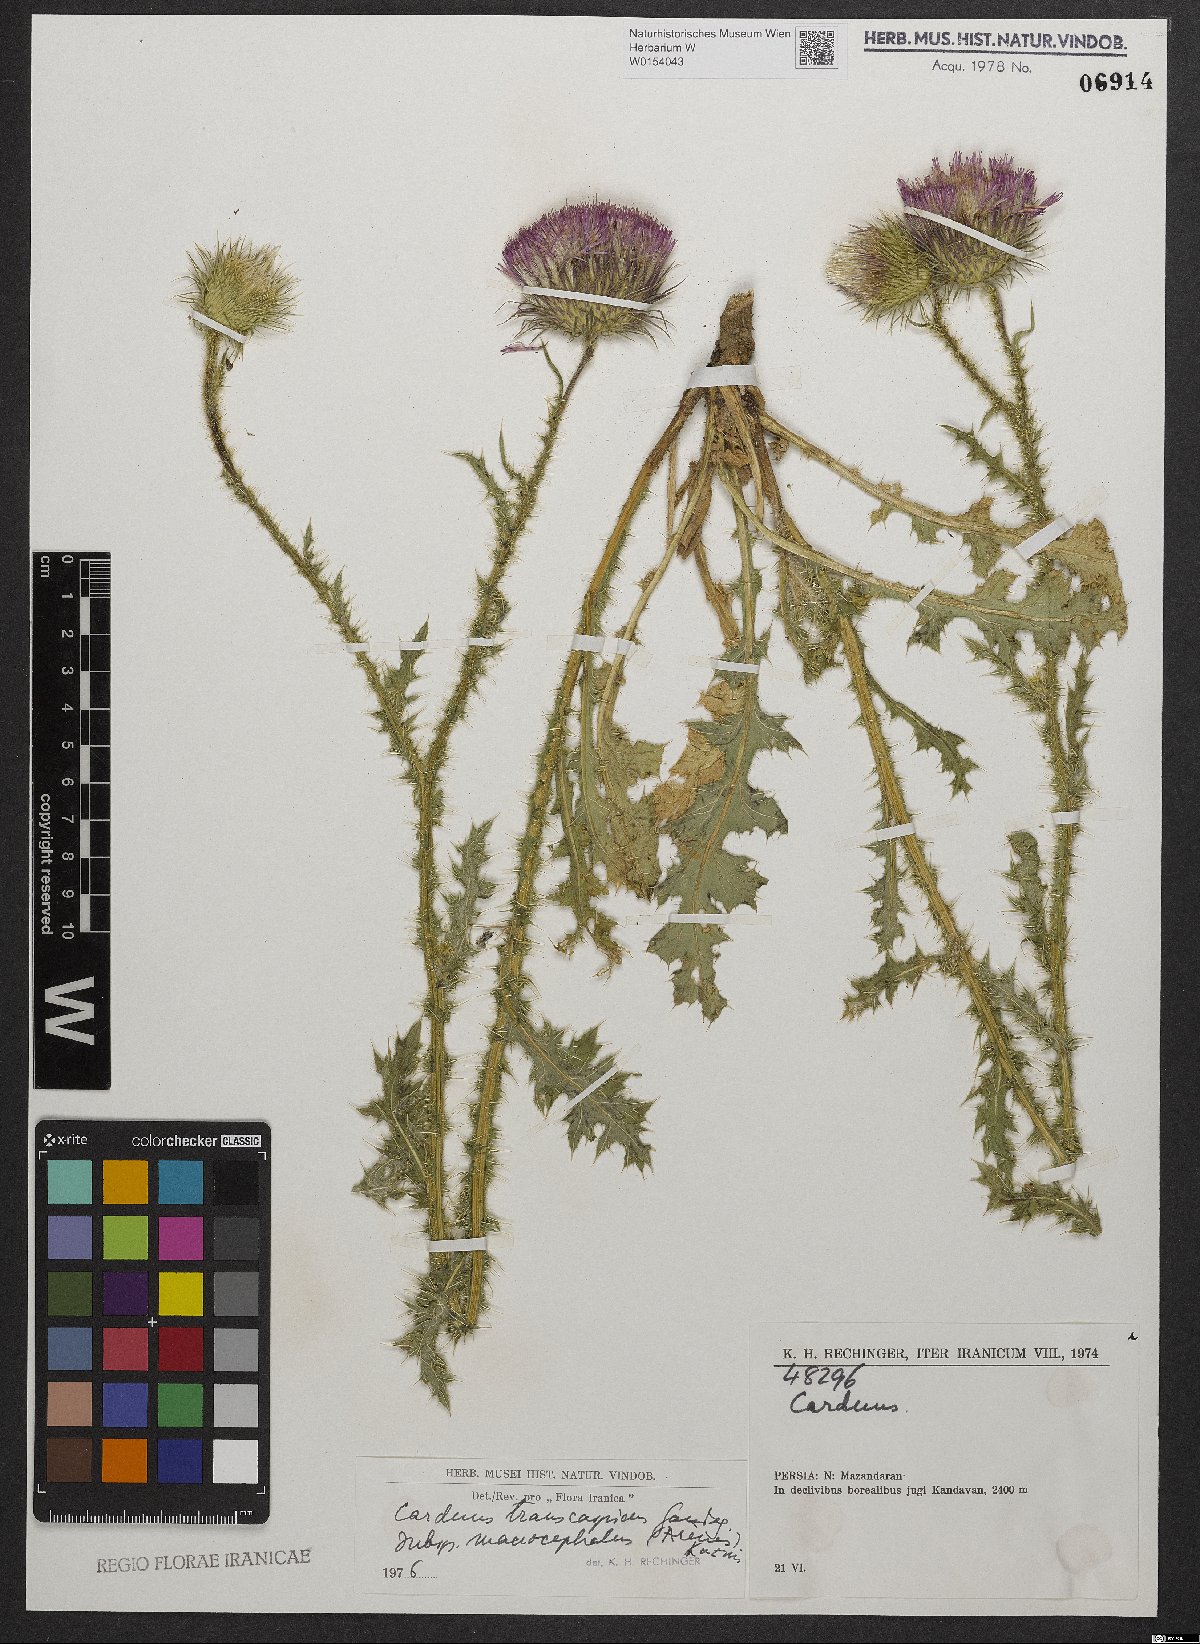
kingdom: Plantae
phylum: Tracheophyta
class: Magnoliopsida
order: Asterales
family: Asteraceae
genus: Carduus
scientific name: Carduus transcaspicus
